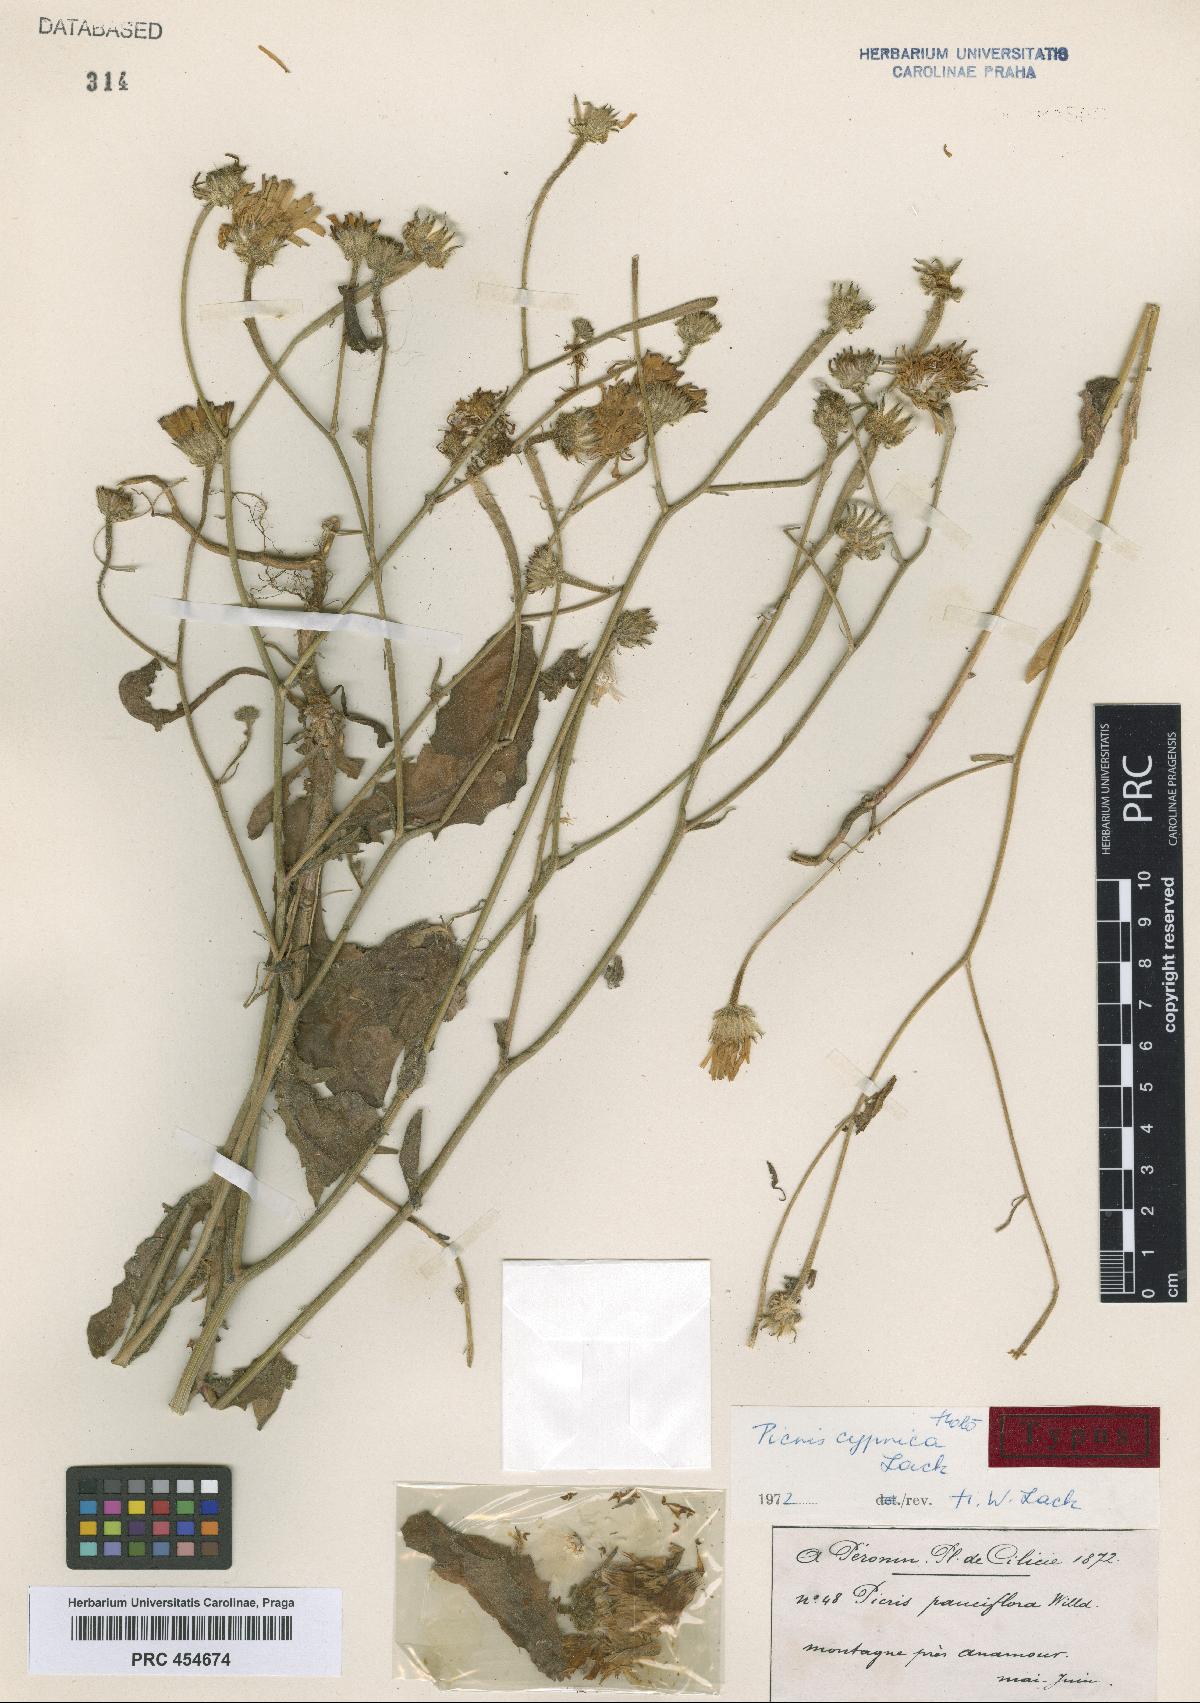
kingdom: Plantae
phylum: Tracheophyta
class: Magnoliopsida
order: Asterales
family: Asteraceae
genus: Picris
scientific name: Picris cyprica
